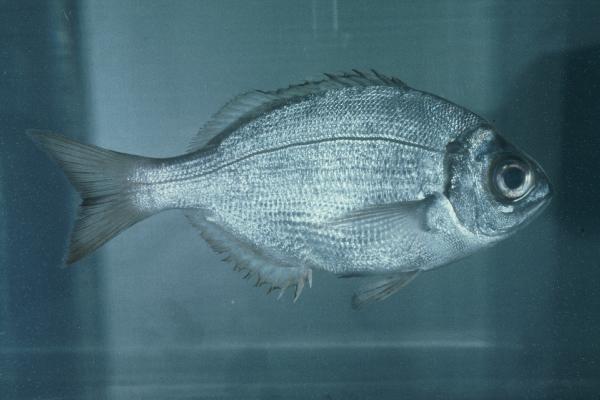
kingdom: Animalia
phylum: Chordata
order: Perciformes
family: Sparidae
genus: Boopsoidea
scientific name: Boopsoidea inornata
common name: Fransmadam
